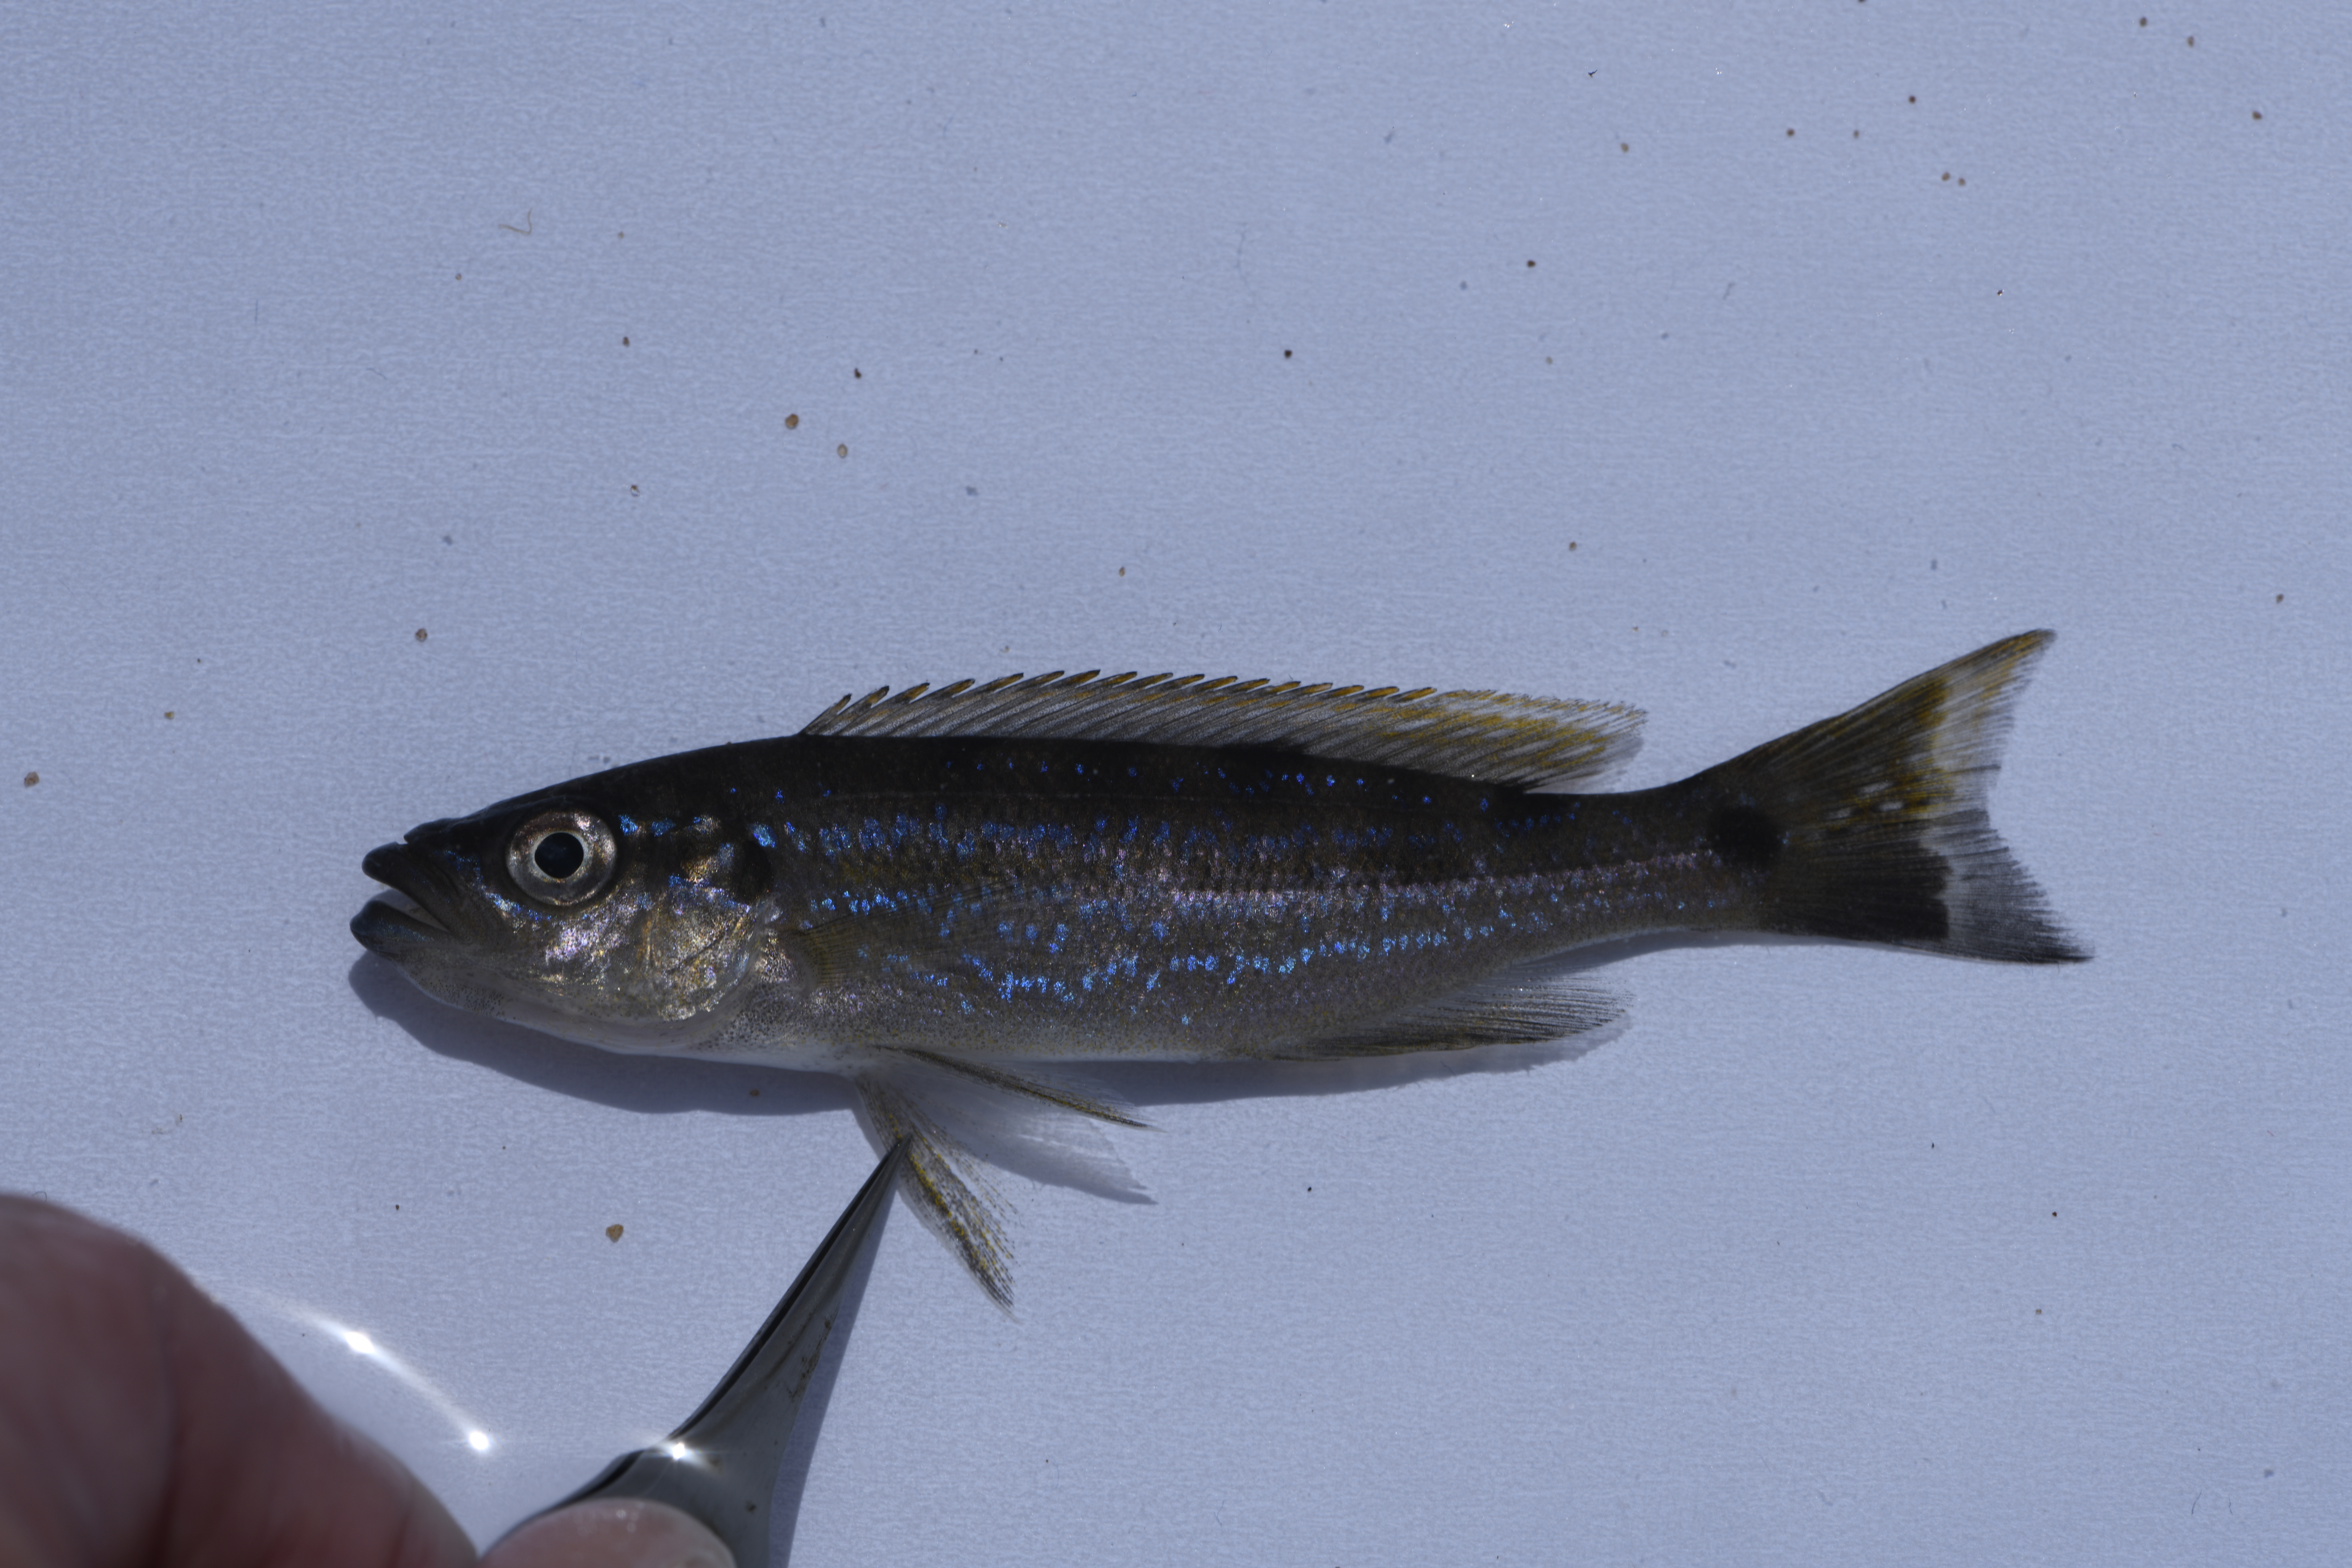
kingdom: Animalia
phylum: Chordata
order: Perciformes
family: Cichlidae
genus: Perissodus
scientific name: Perissodus microlepis
